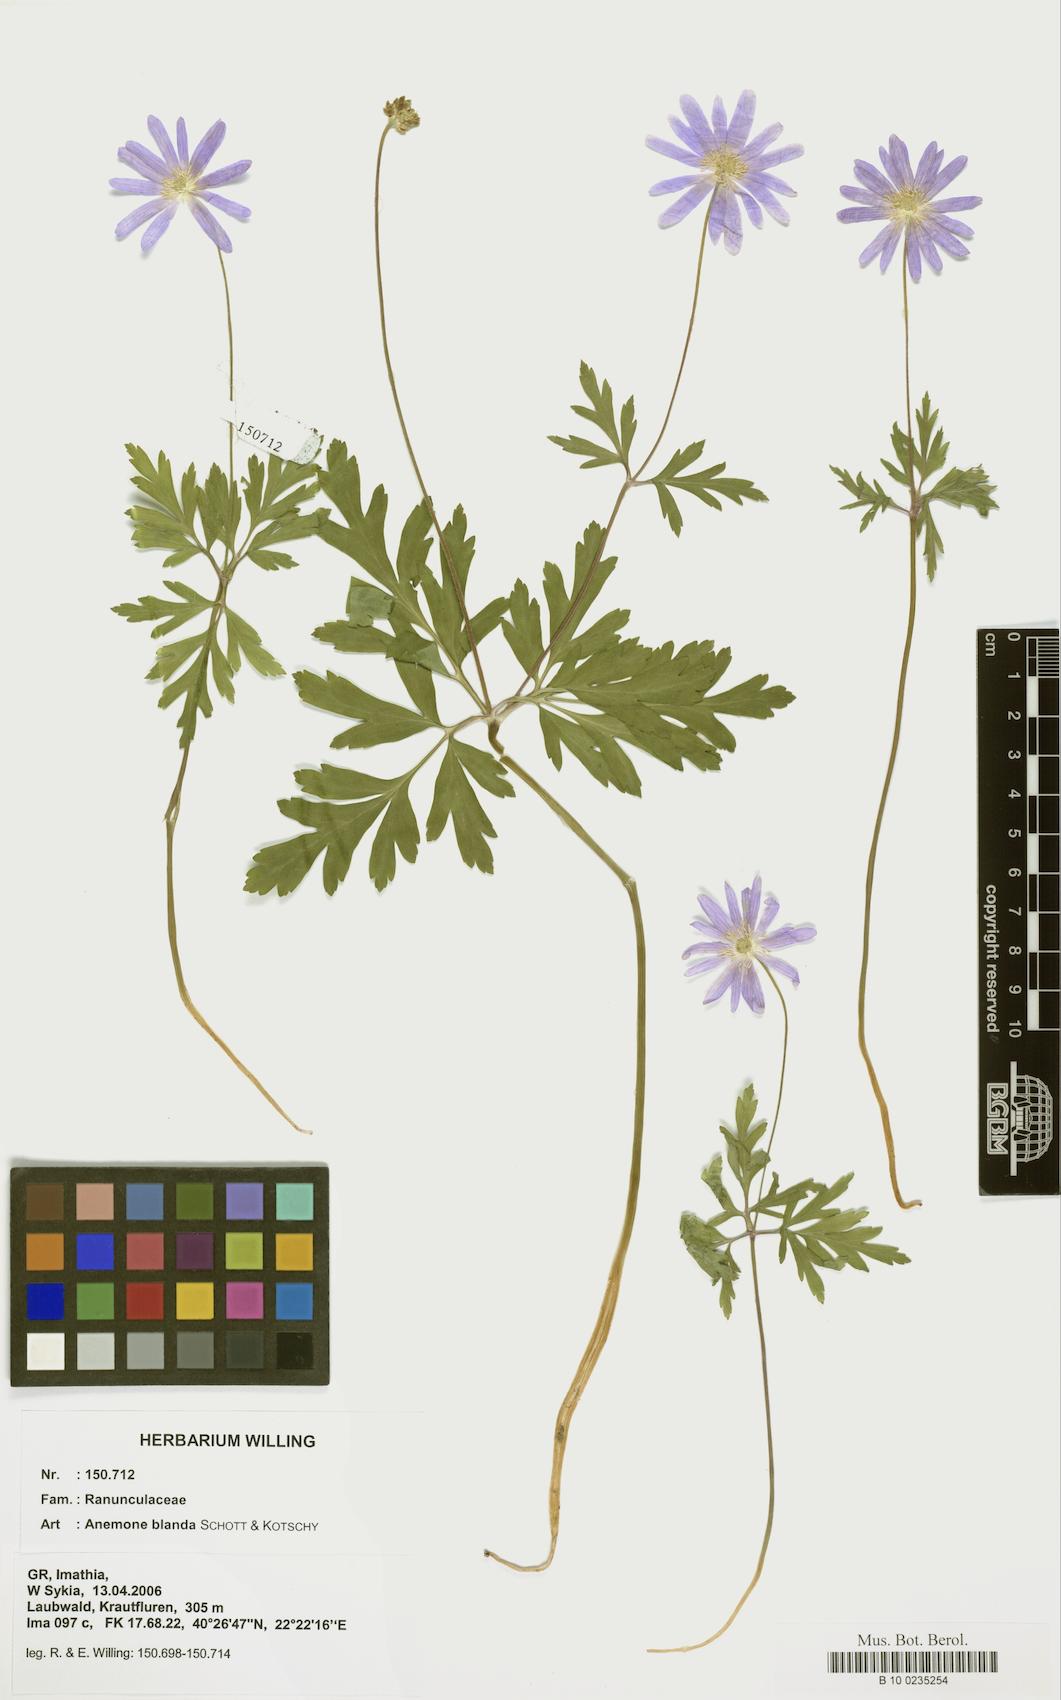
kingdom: Plantae
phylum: Tracheophyta
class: Magnoliopsida
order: Ranunculales
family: Ranunculaceae
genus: Anemone
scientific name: Anemone blanda
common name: Balkan anemone
